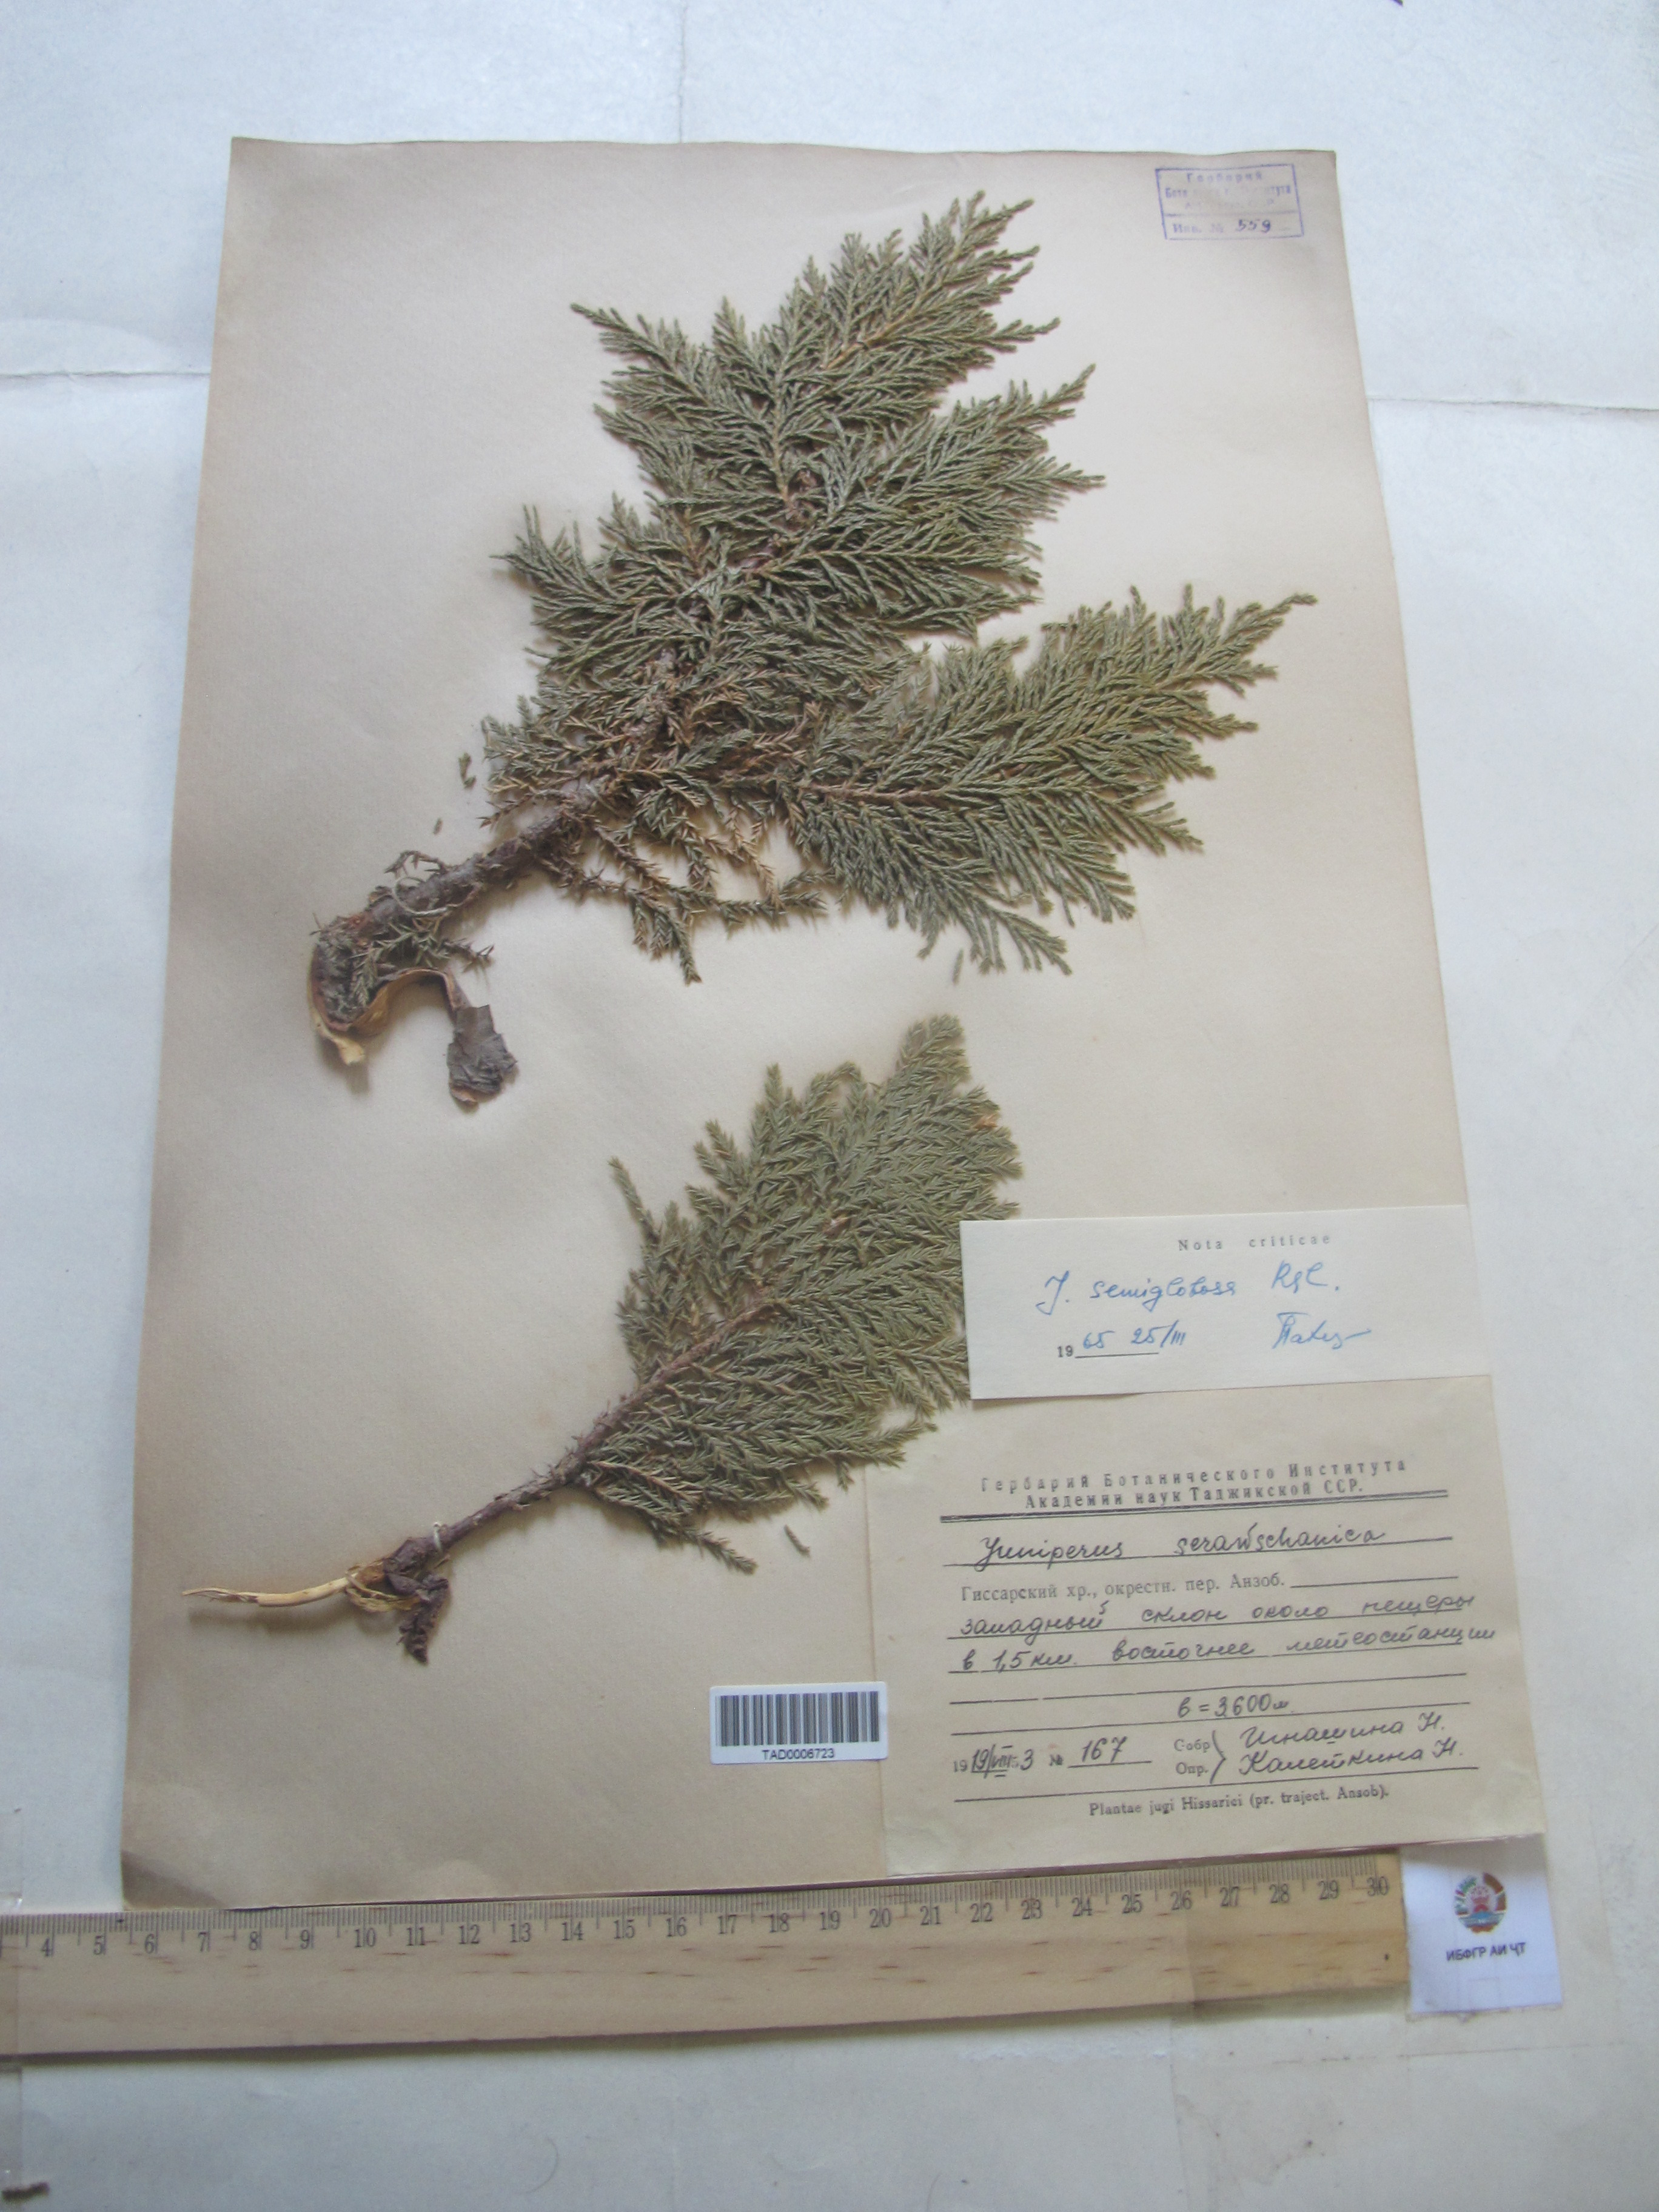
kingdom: Plantae
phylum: Tracheophyta
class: Pinopsida
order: Pinales
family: Cupressaceae
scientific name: Cupressaceae
